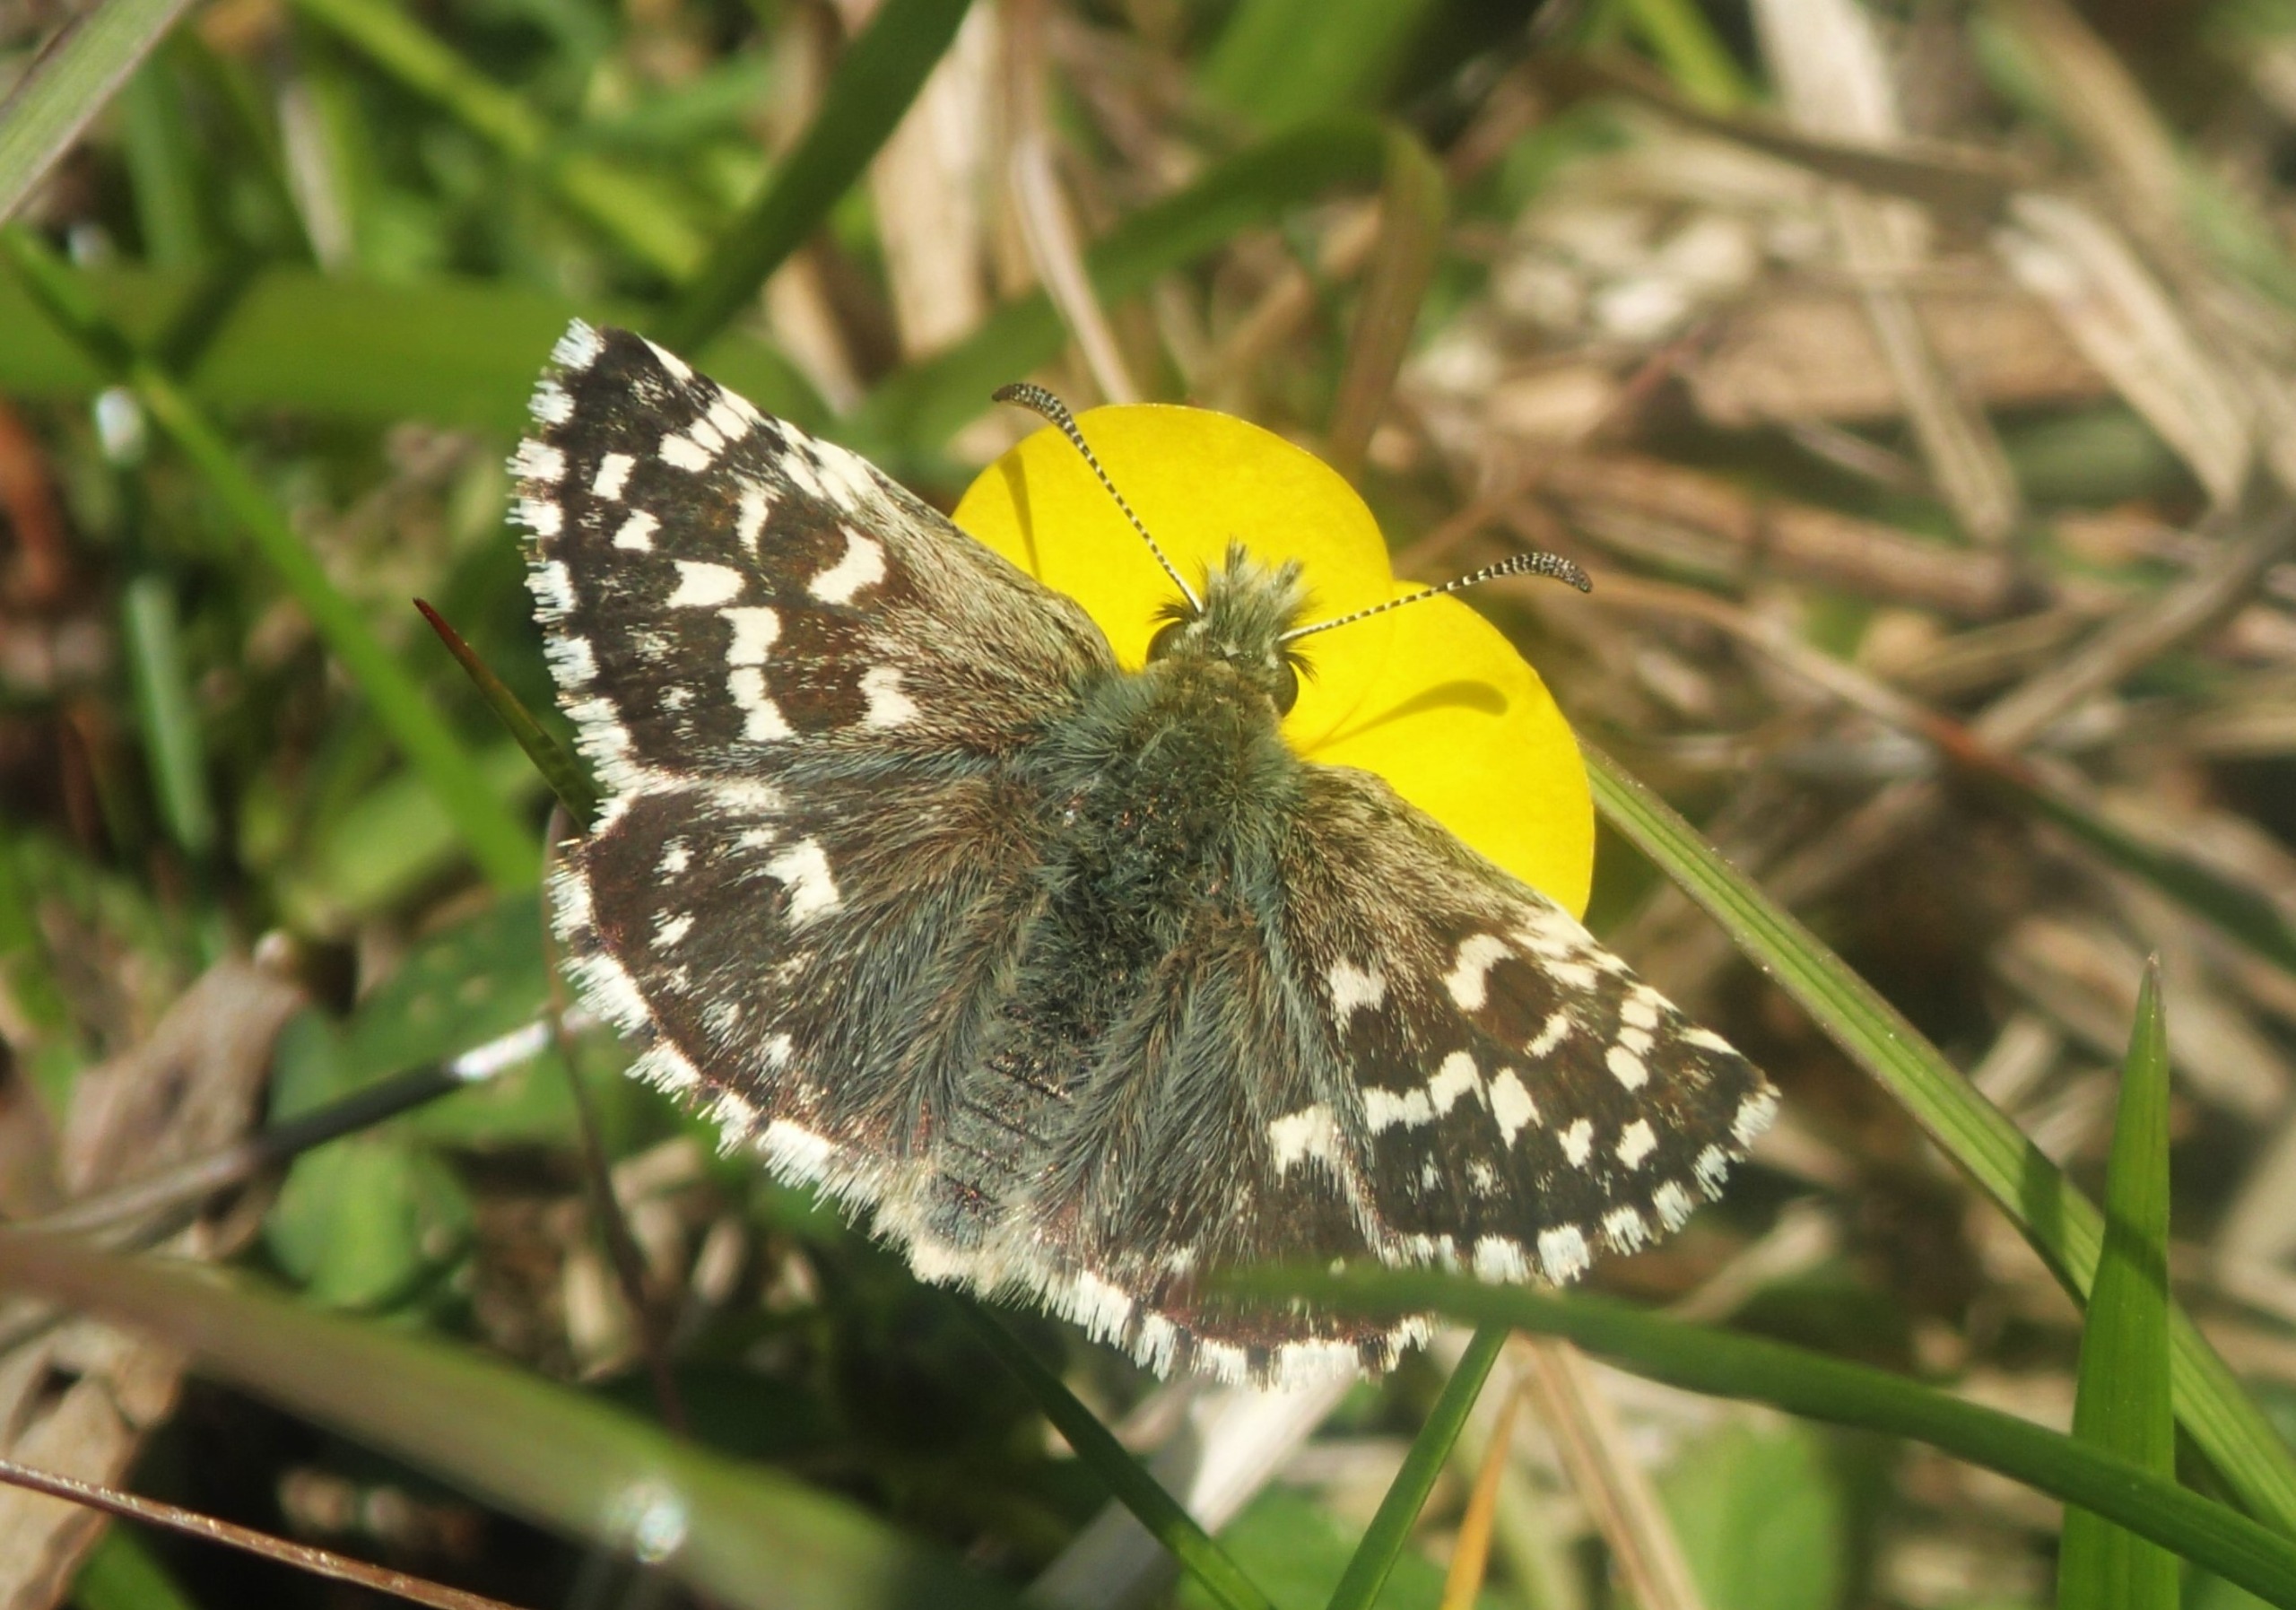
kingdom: Animalia
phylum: Arthropoda
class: Insecta
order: Lepidoptera
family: Hesperiidae
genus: Pyrgus
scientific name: Pyrgus malvae
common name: Spættet bredpande
